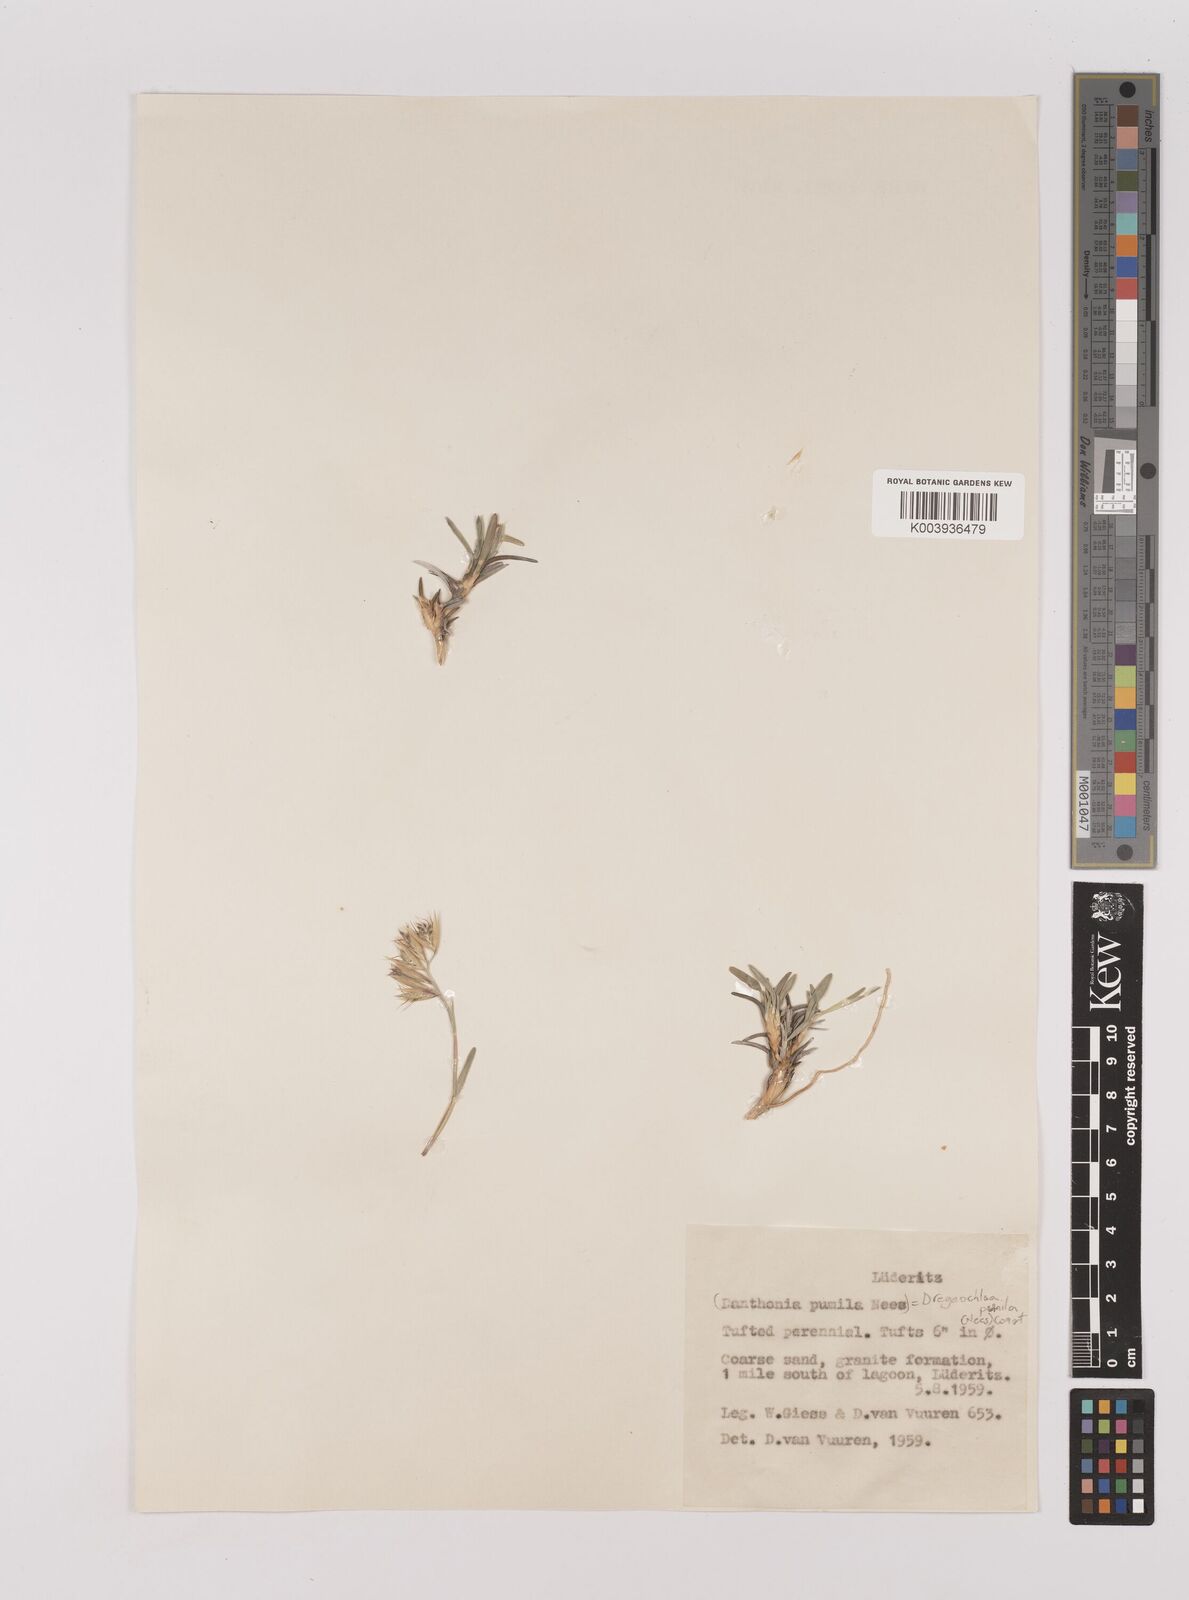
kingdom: Plantae
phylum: Tracheophyta
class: Liliopsida
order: Poales
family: Poaceae
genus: Dregeochloa
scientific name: Dregeochloa pumila
